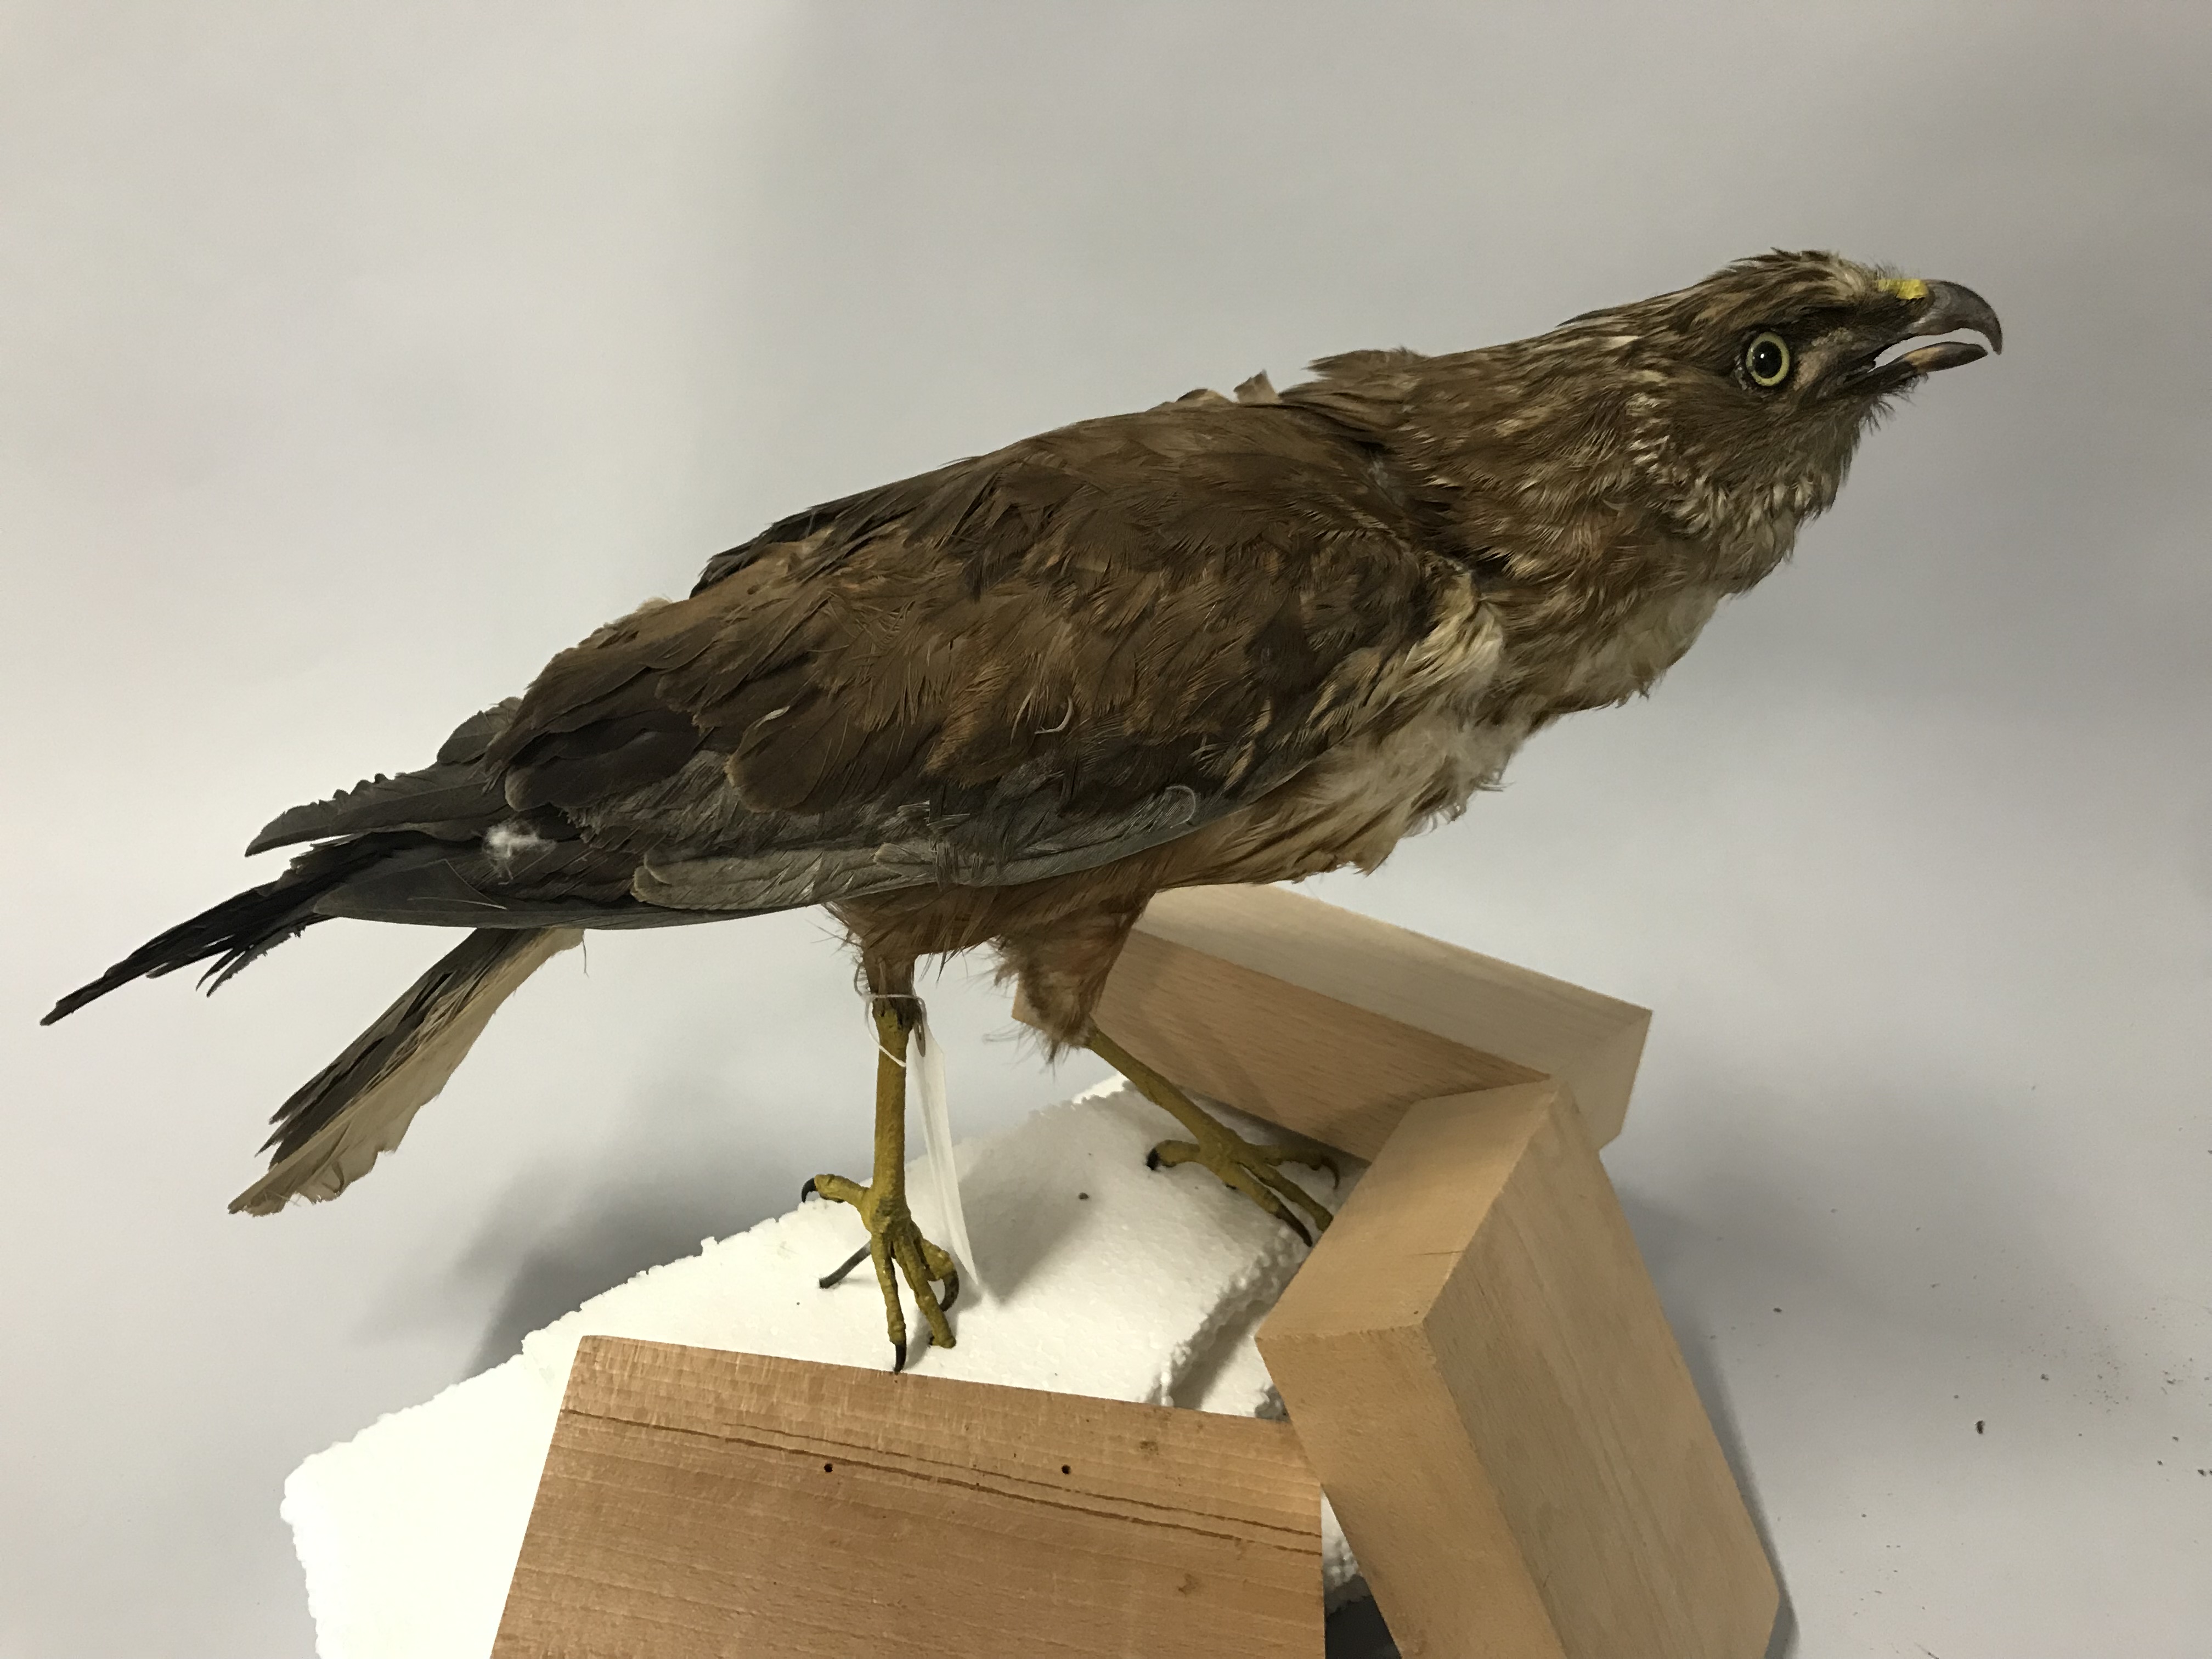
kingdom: Animalia
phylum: Chordata
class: Aves
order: Accipitriformes
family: Accipitridae
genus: Circus
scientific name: Circus aeruginosus
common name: Western marsh harrier
